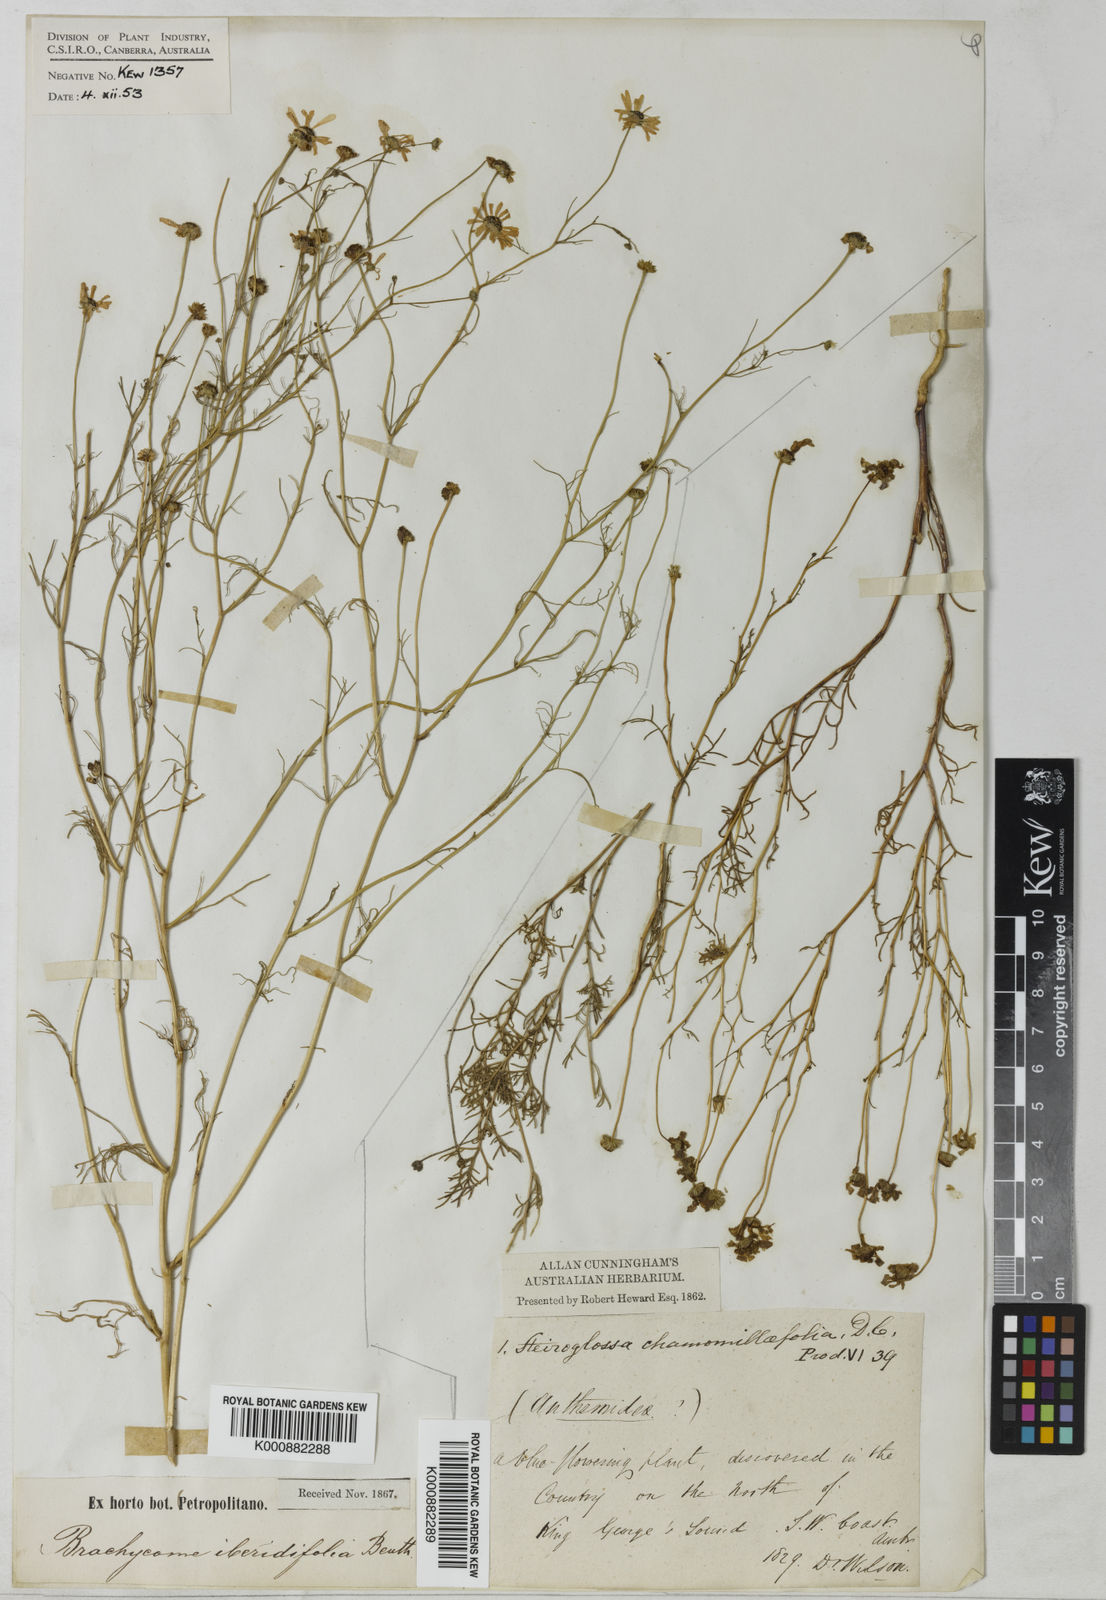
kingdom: Plantae
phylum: Tracheophyta
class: Magnoliopsida
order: Asterales
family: Asteraceae
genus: Brachyscome
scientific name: Brachyscome iberidifolia
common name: Swan river daisy
